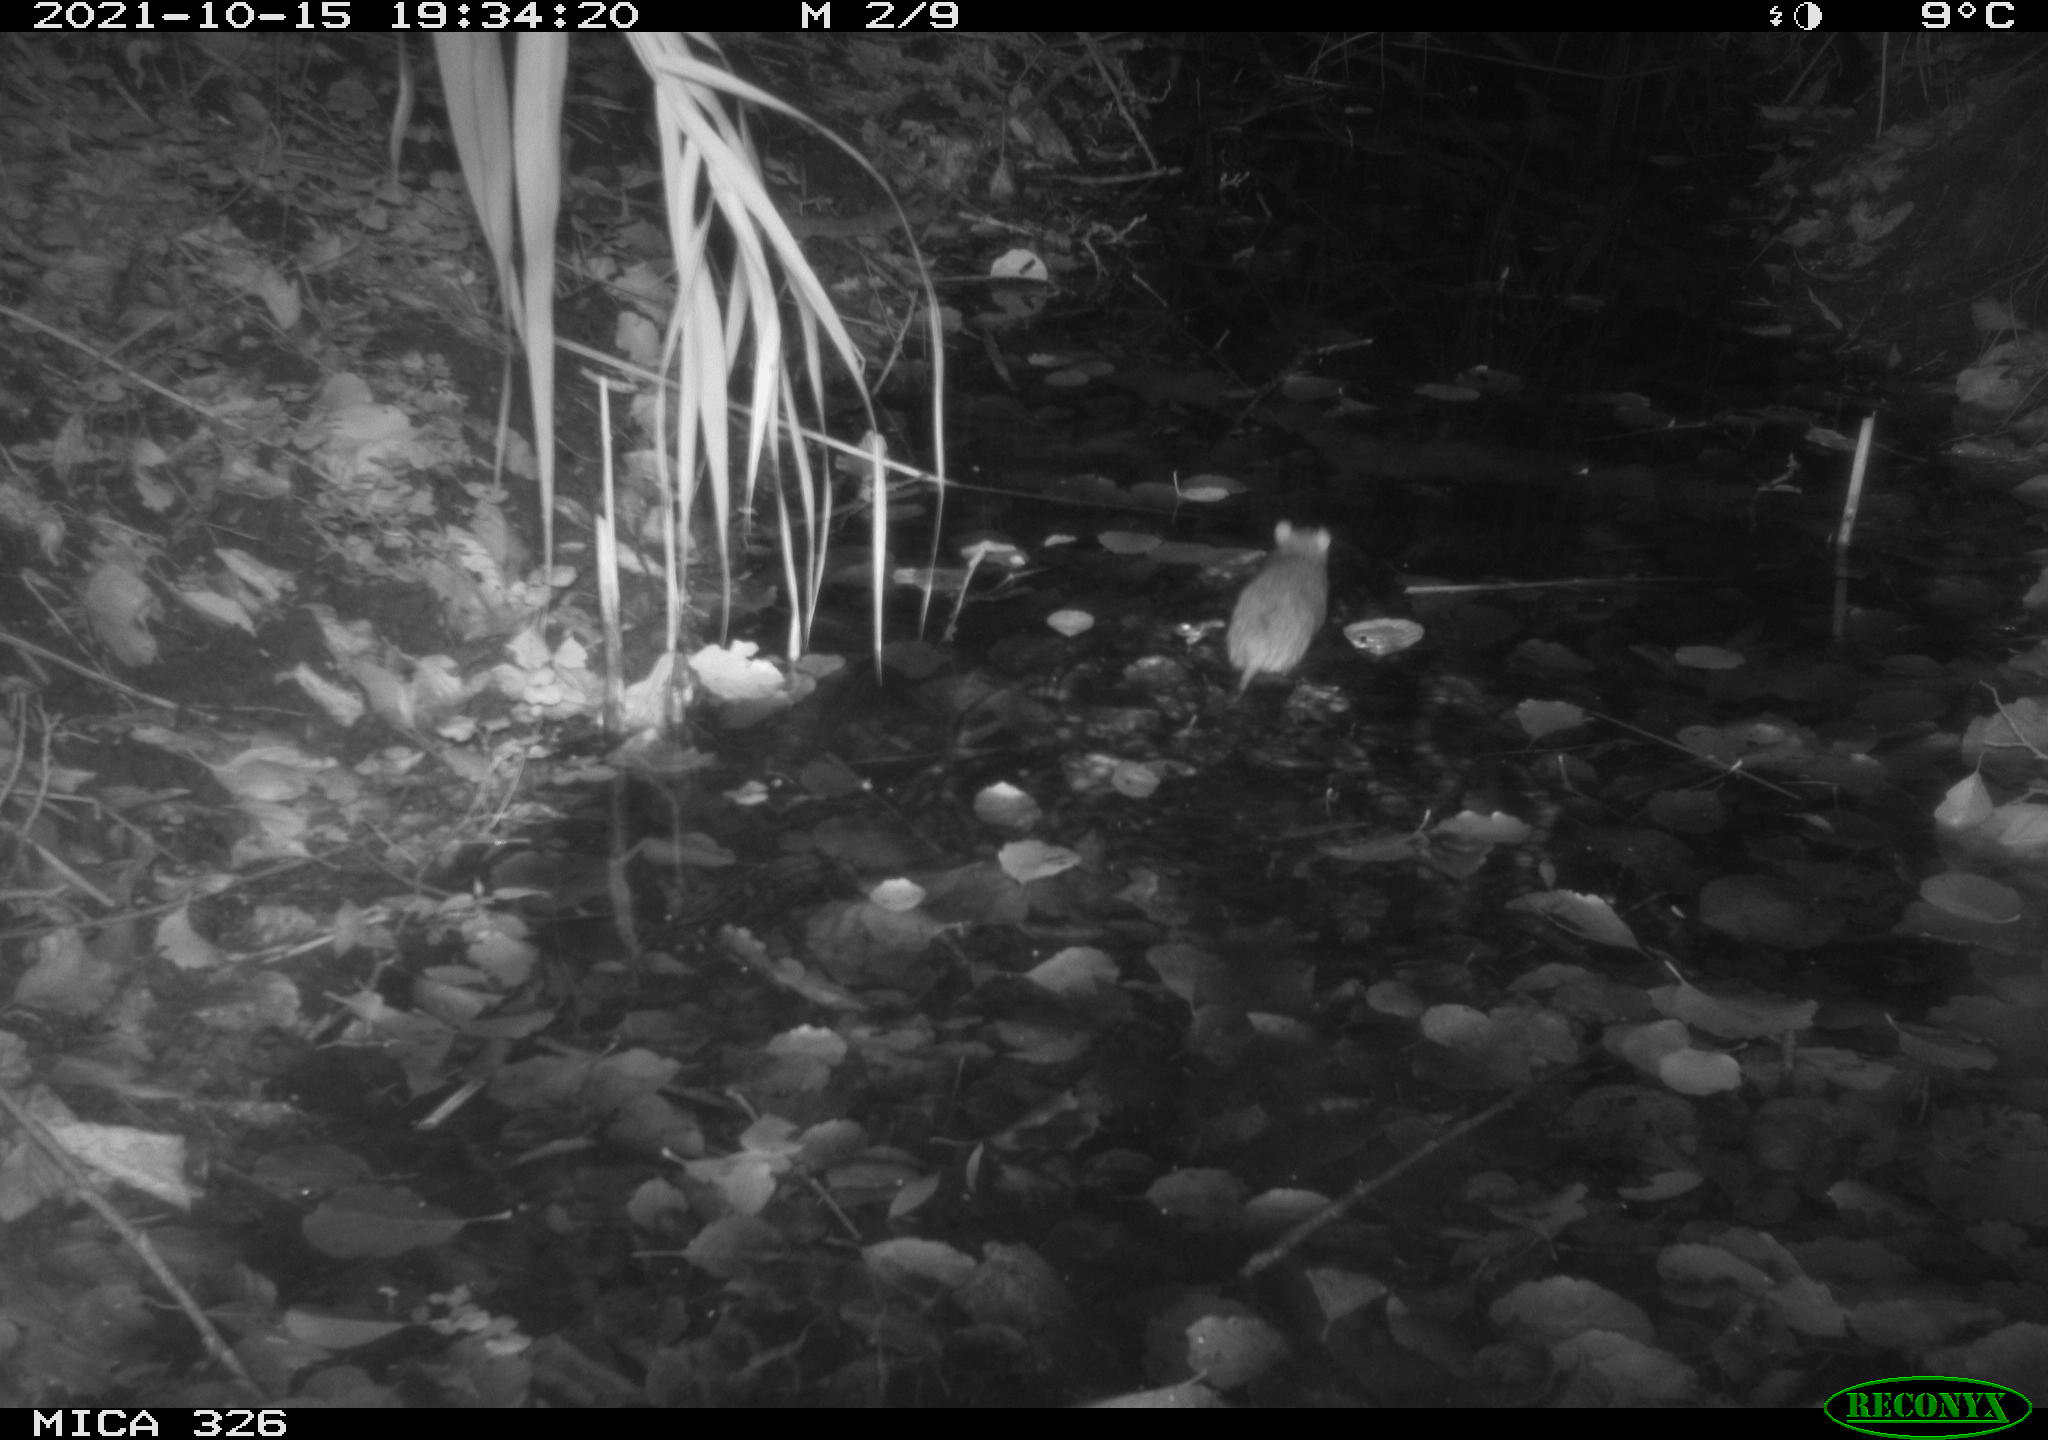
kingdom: Animalia
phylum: Chordata
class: Mammalia
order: Rodentia
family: Muridae
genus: Rattus
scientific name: Rattus norvegicus
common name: Brown rat
